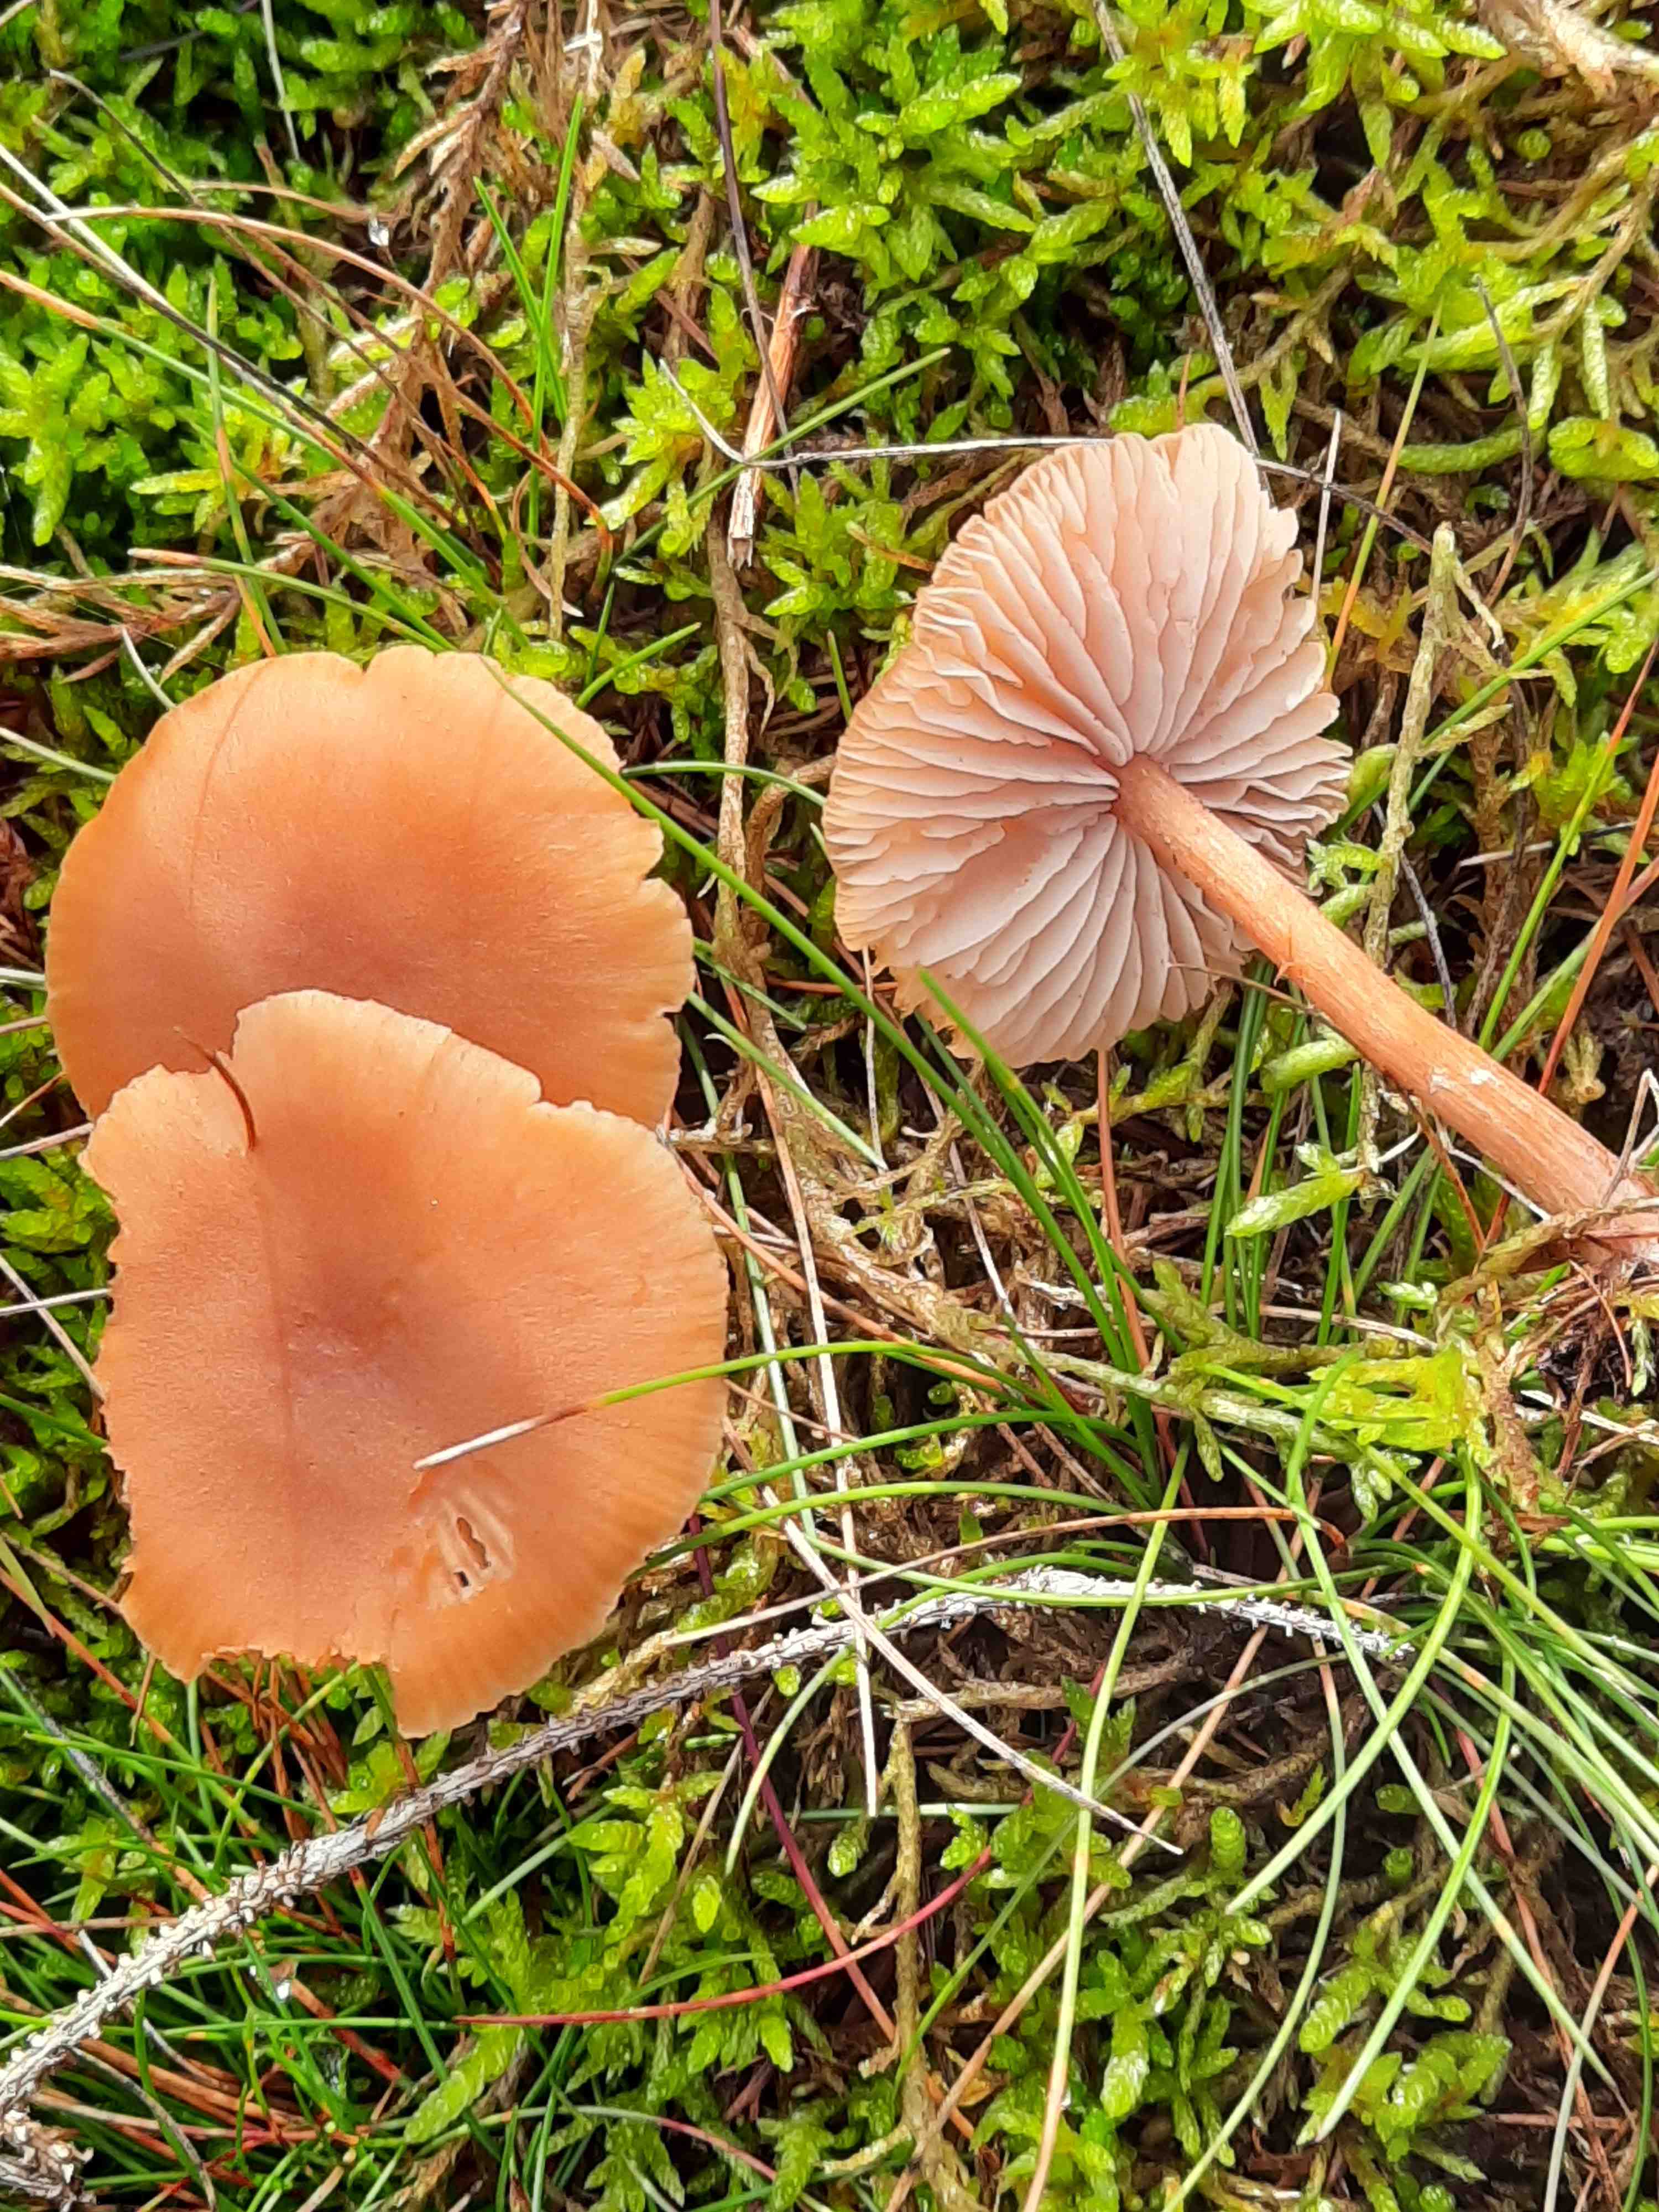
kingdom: Fungi
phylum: Basidiomycota
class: Agaricomycetes
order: Agaricales
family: Hydnangiaceae
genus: Laccaria
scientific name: Laccaria proxima
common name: stor ametysthat
